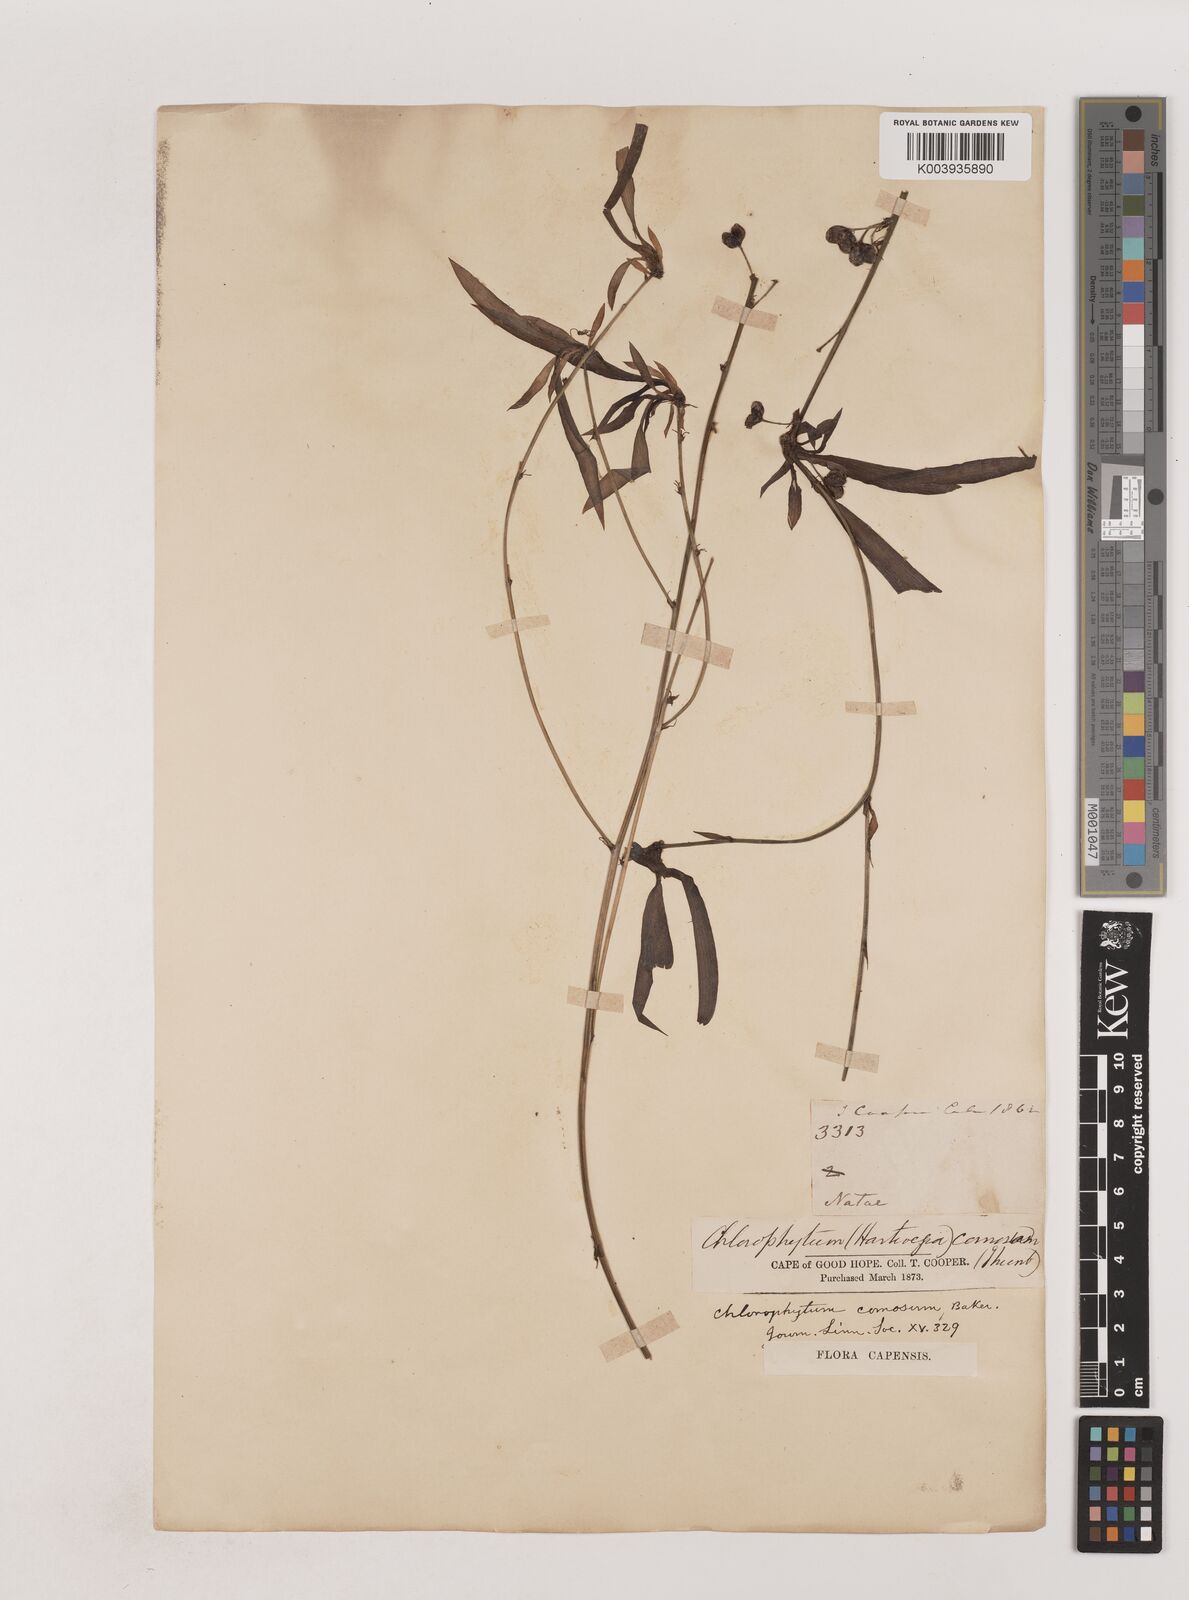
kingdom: Plantae
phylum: Tracheophyta
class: Liliopsida
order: Asparagales
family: Asparagaceae
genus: Chlorophytum
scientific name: Chlorophytum comosum
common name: Spider plant
